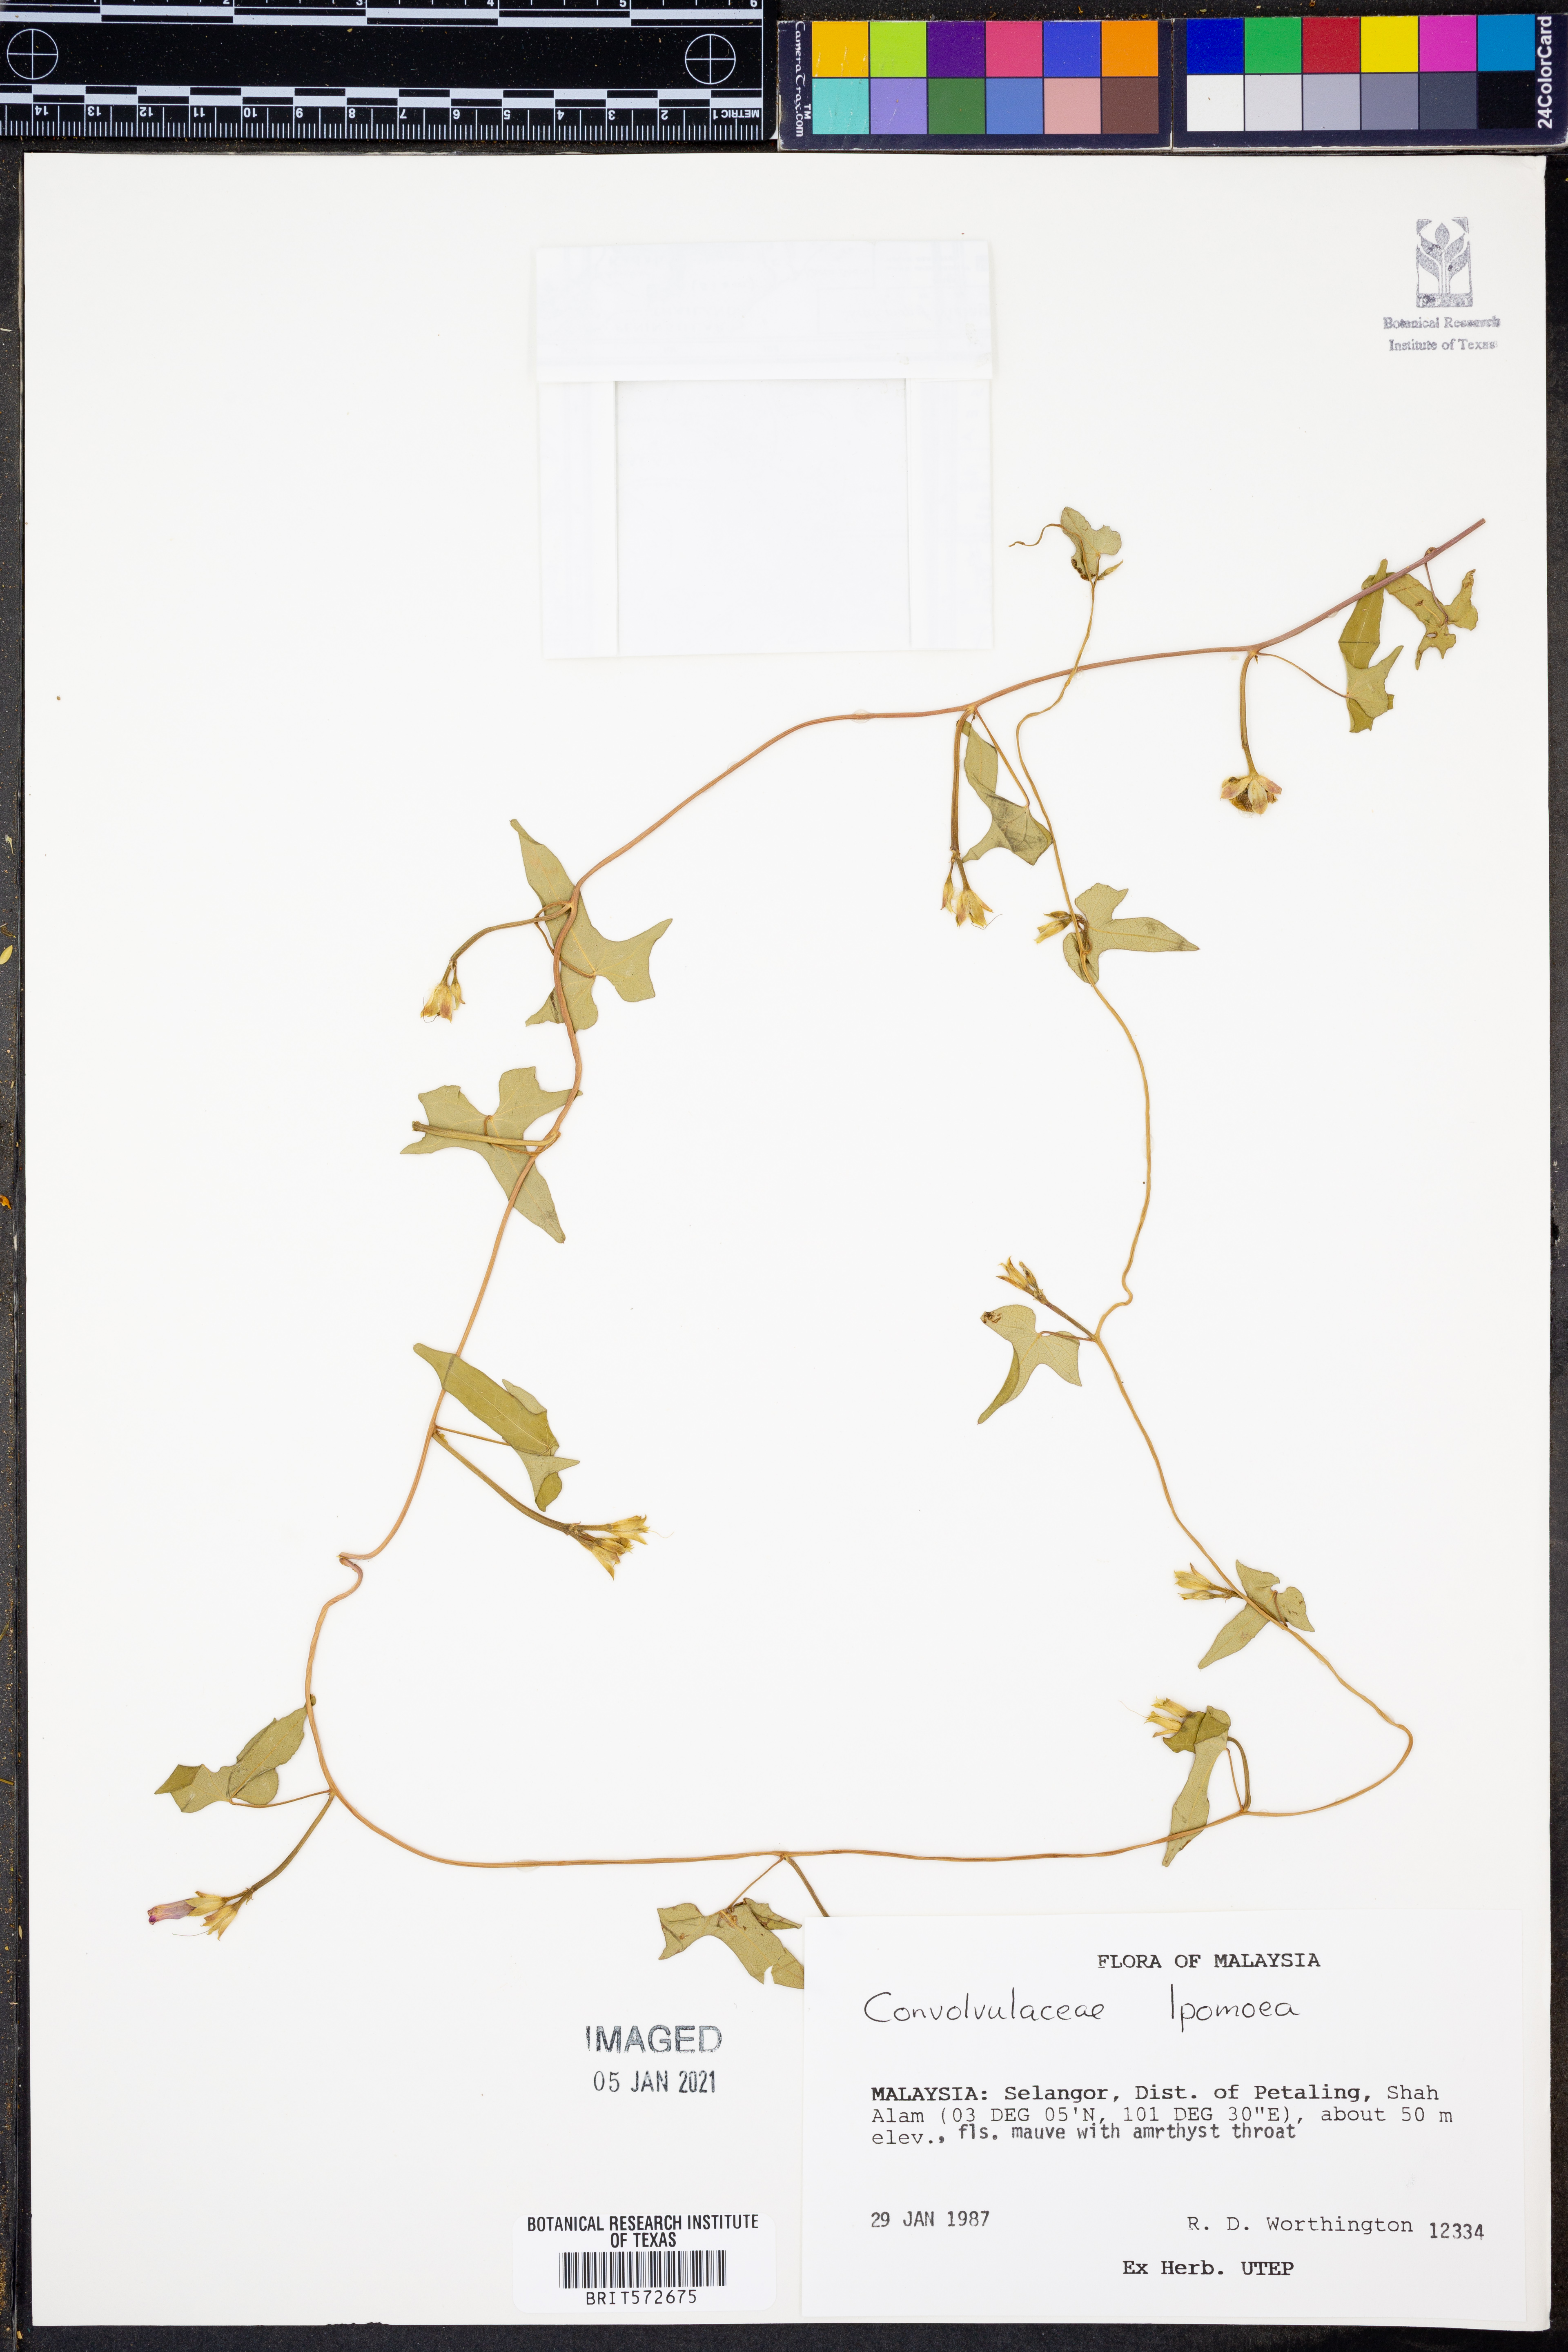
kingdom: Plantae
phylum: Tracheophyta
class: Magnoliopsida
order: Solanales
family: Convolvulaceae
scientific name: Convolvulaceae
